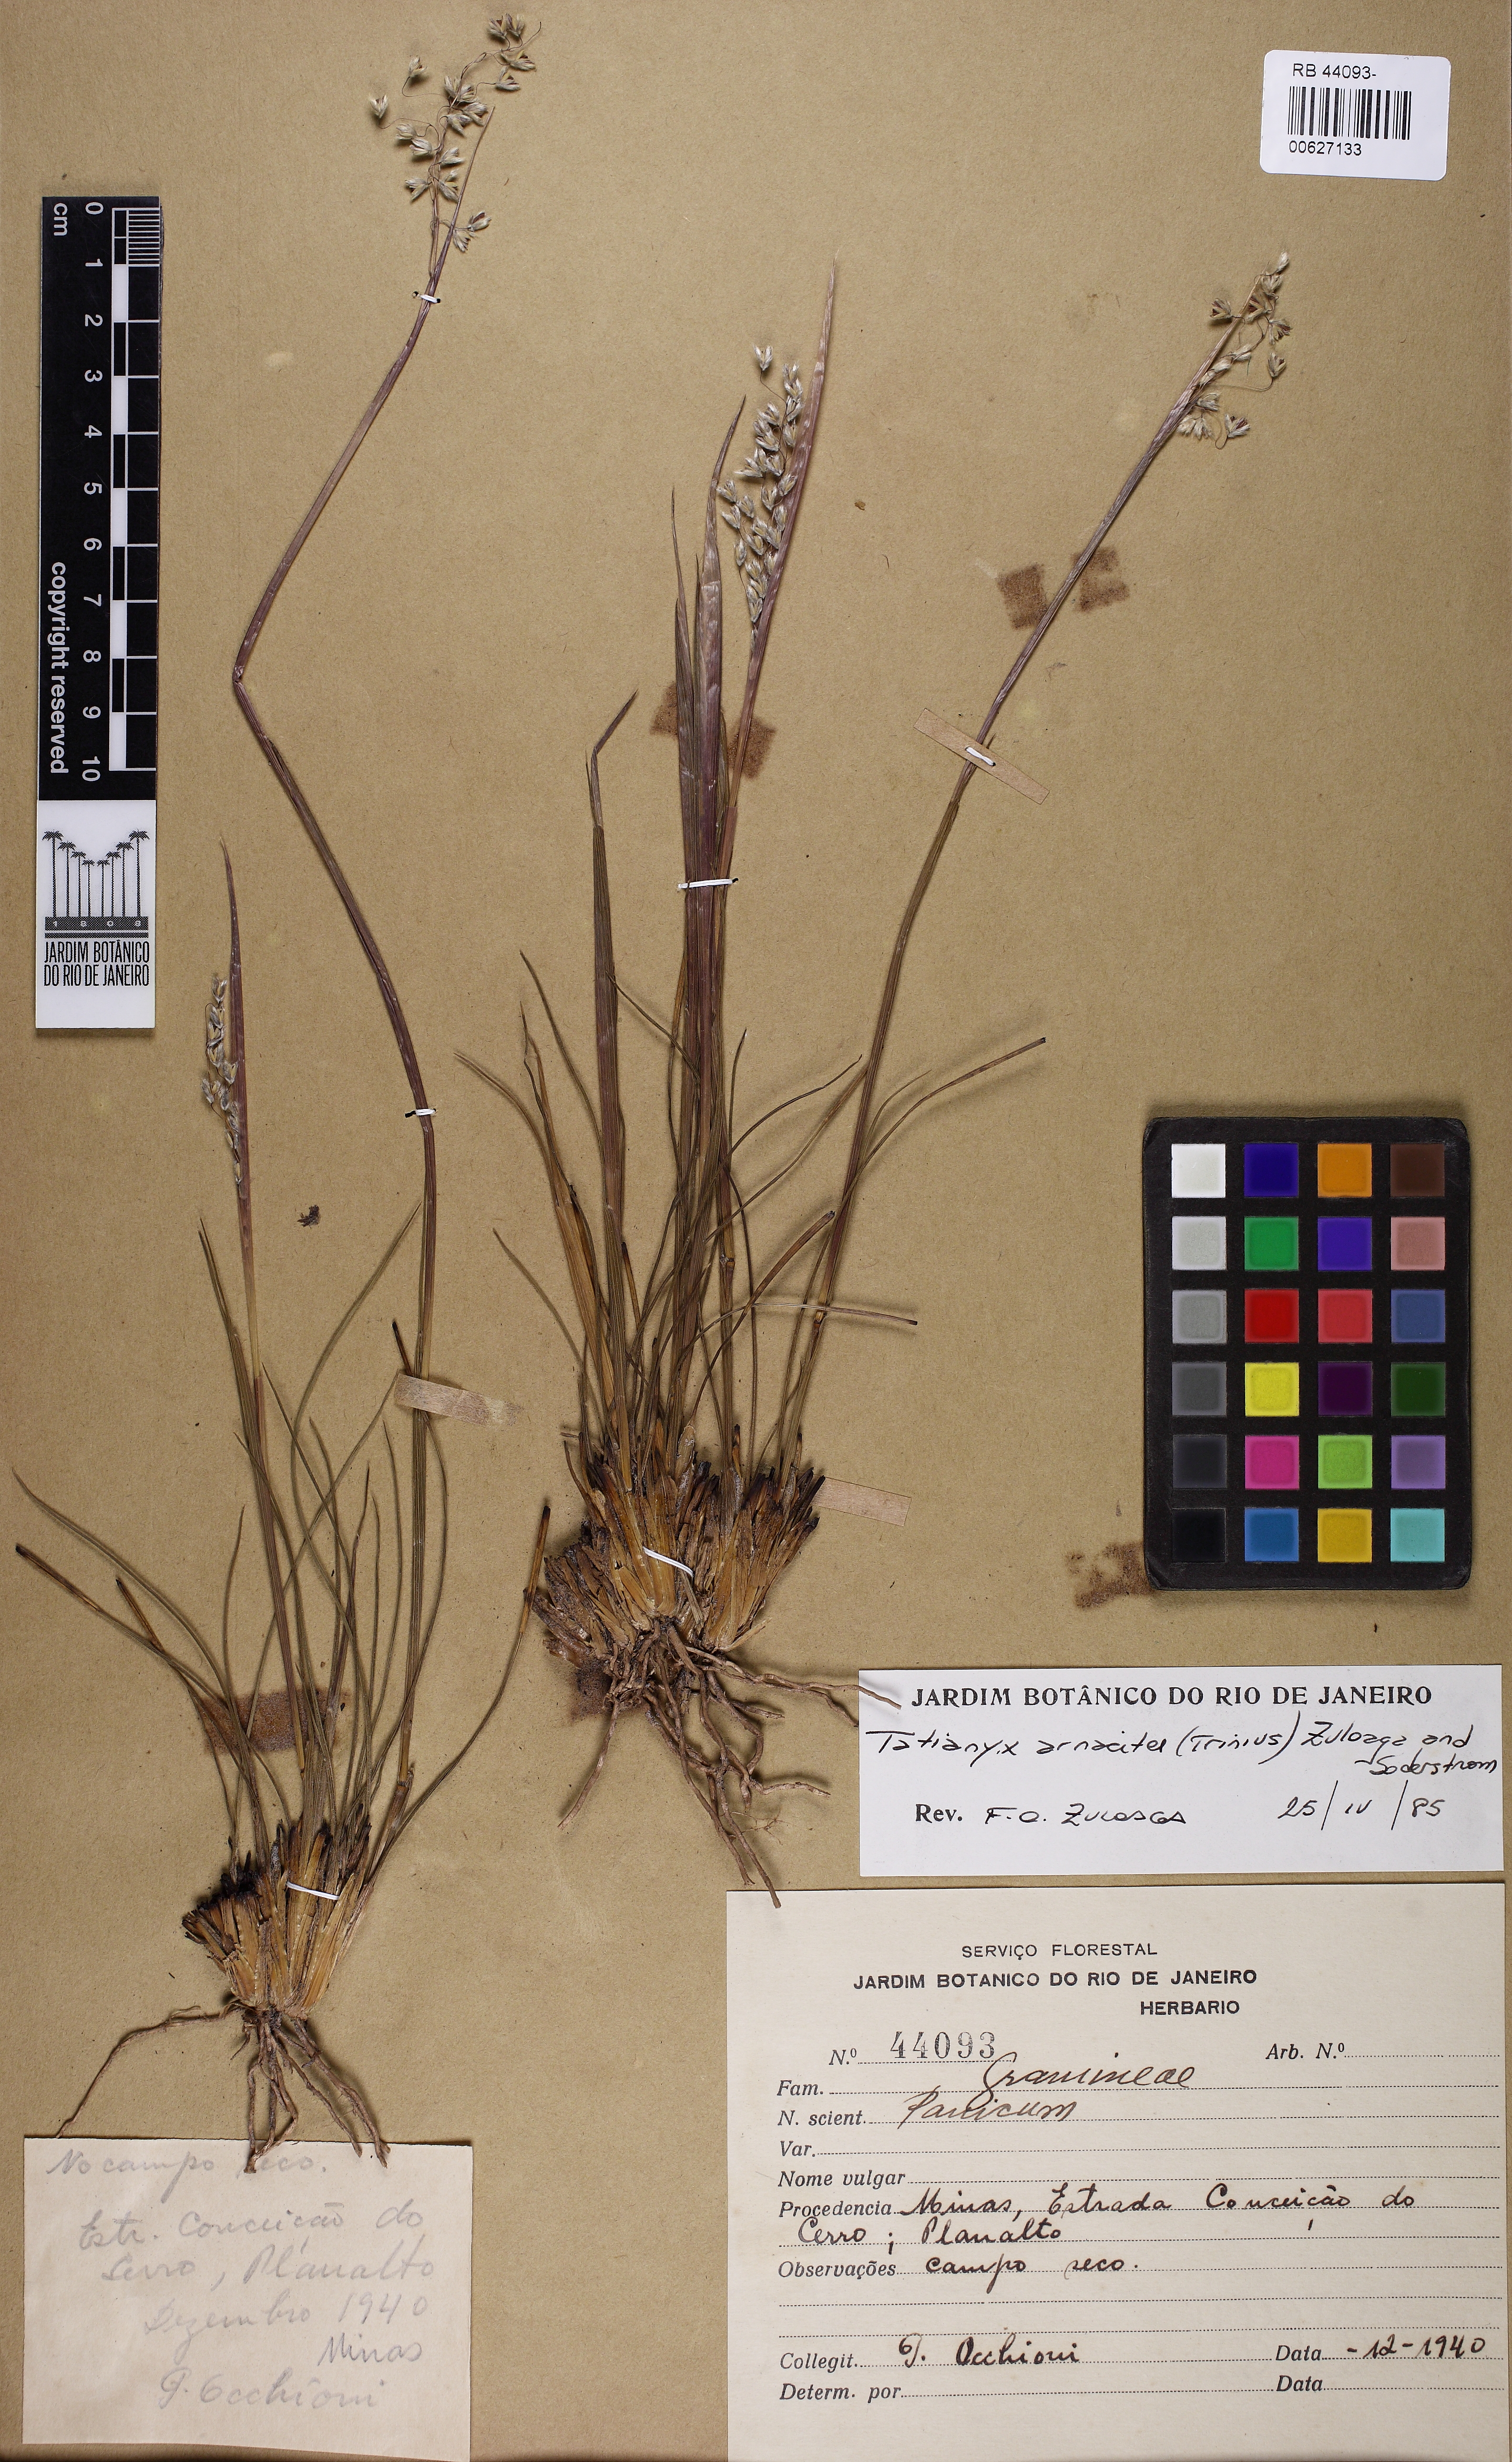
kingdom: Plantae
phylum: Tracheophyta
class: Liliopsida
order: Poales
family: Poaceae
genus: Tatianyx
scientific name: Tatianyx arnacites
